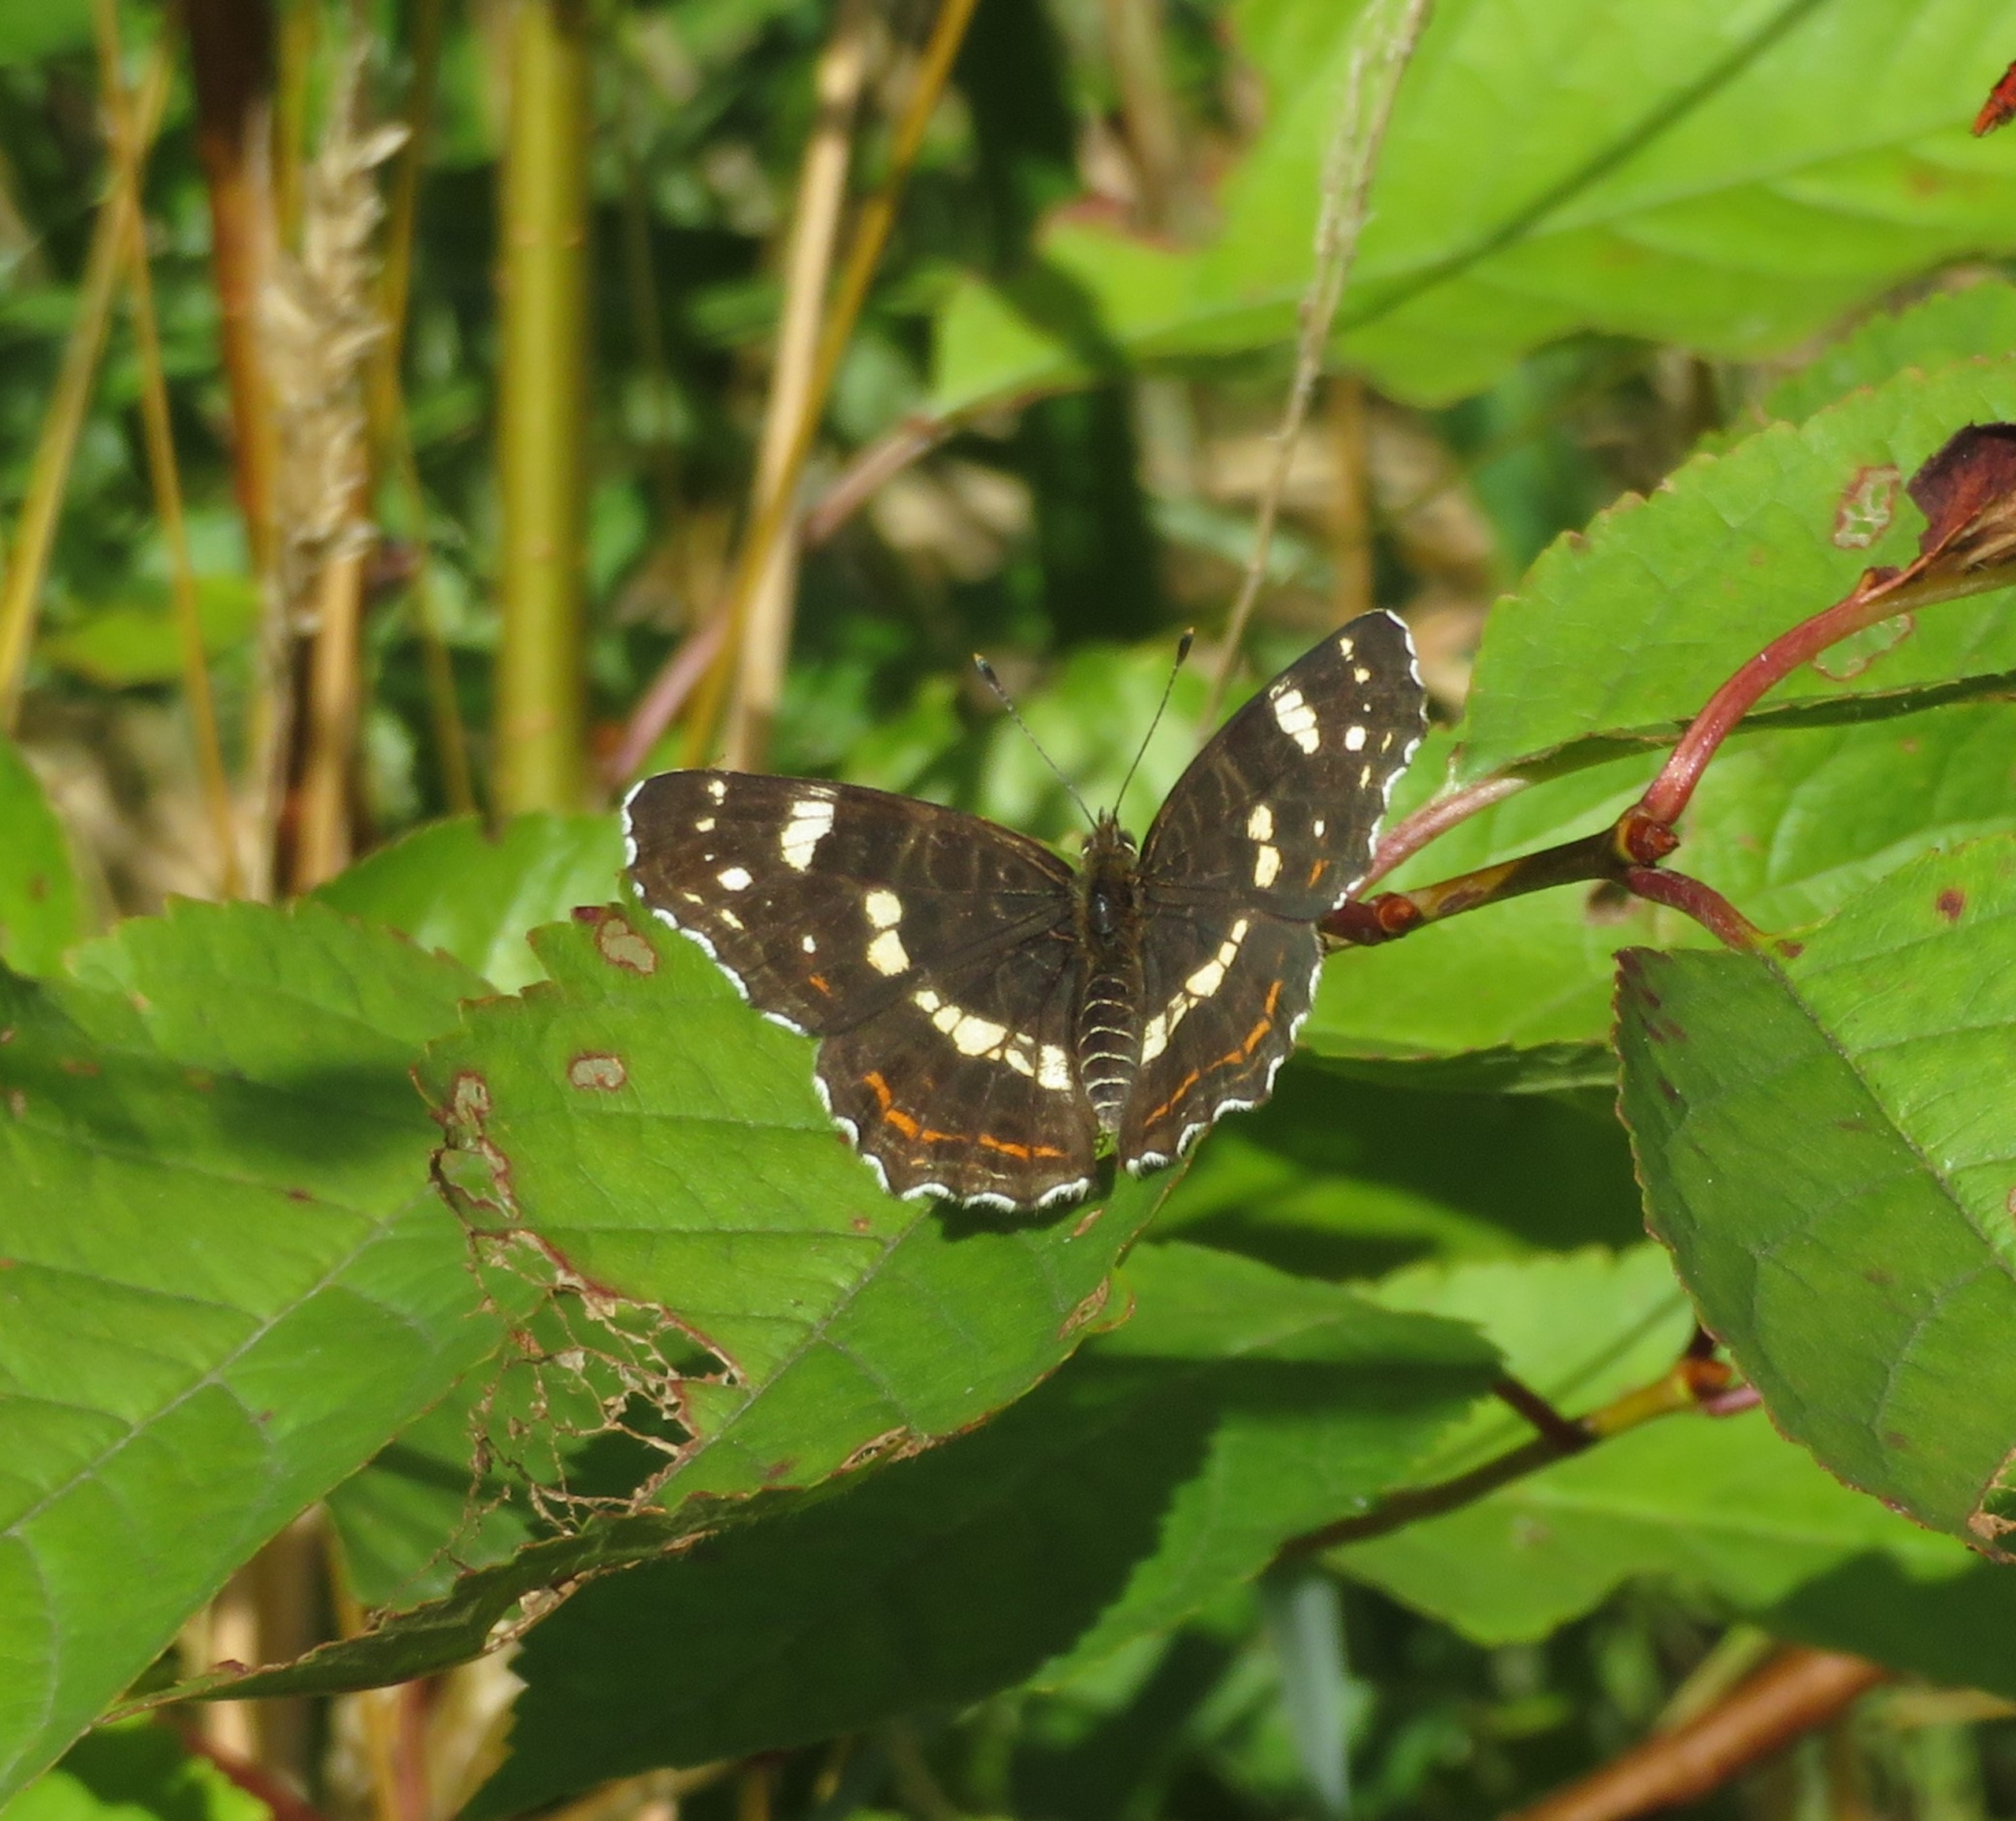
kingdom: Animalia
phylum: Arthropoda
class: Insecta
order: Lepidoptera
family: Nymphalidae
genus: Araschnia
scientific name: Araschnia levana
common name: Nældesommerfugl
